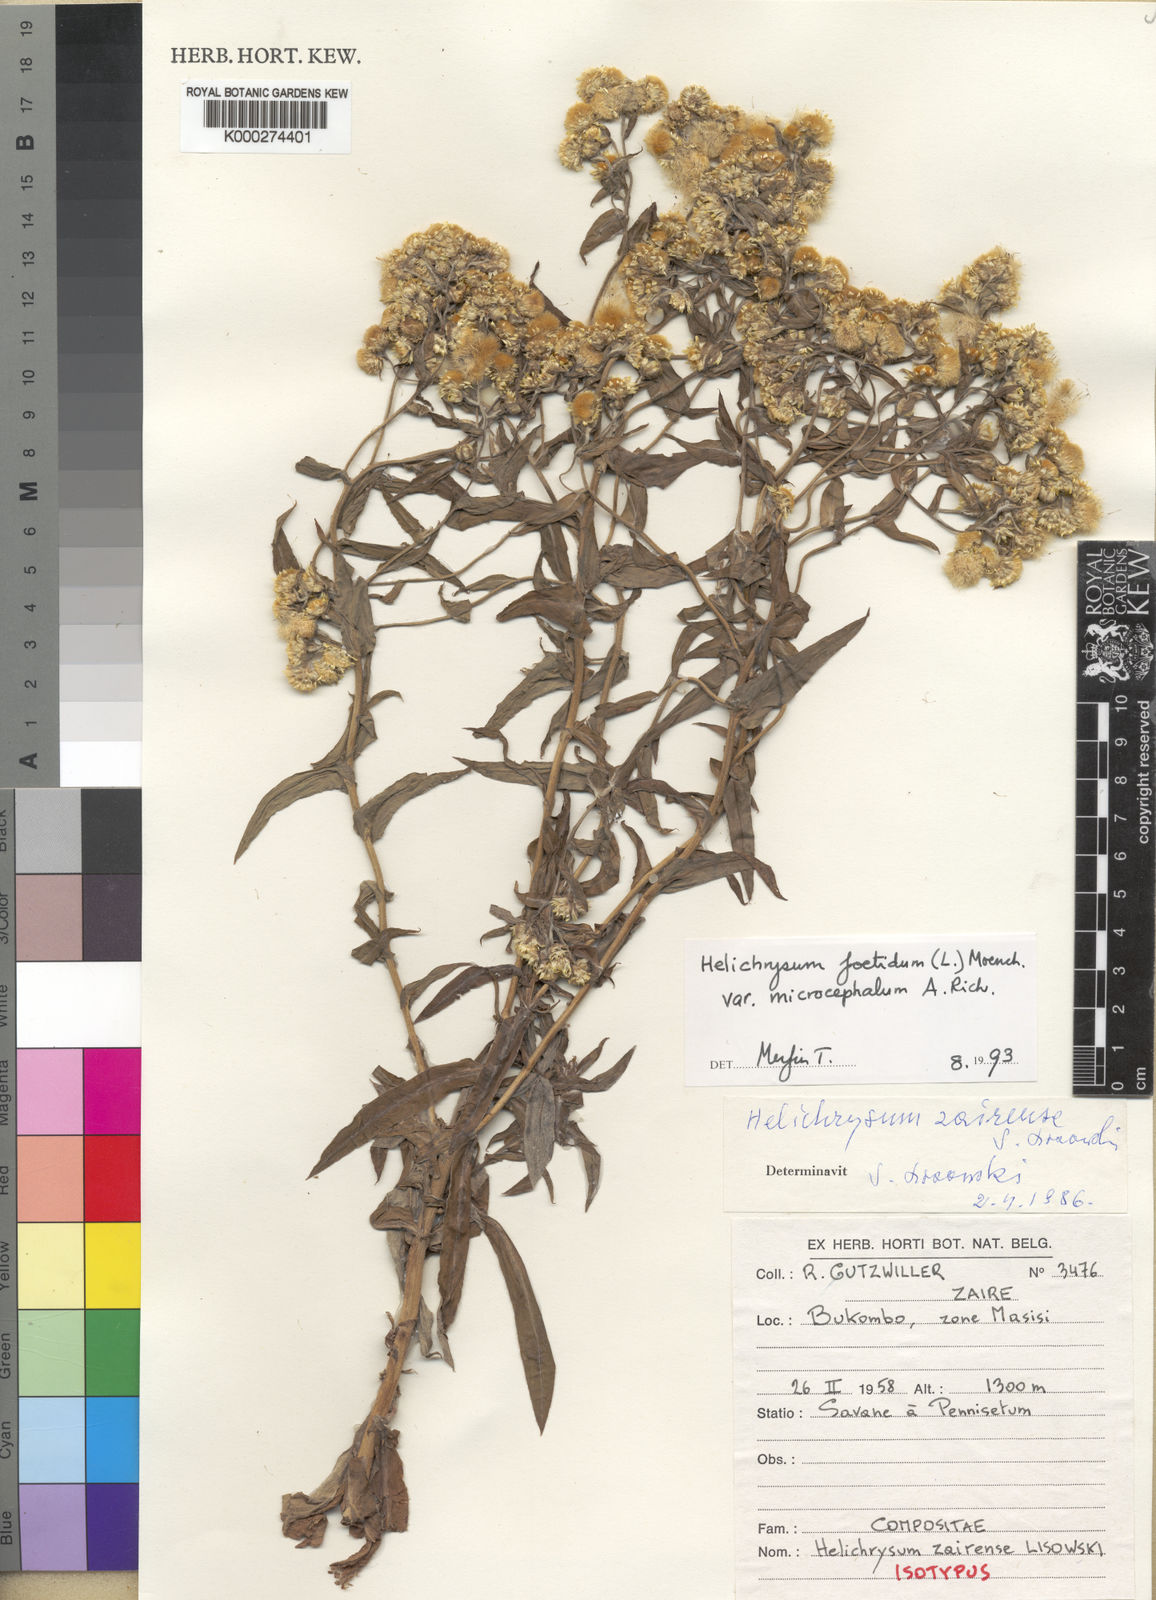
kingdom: Plantae
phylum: Tracheophyta
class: Magnoliopsida
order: Asterales
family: Asteraceae
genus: Helichrysum
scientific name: Helichrysum foetidum
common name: Stinking everlasting
